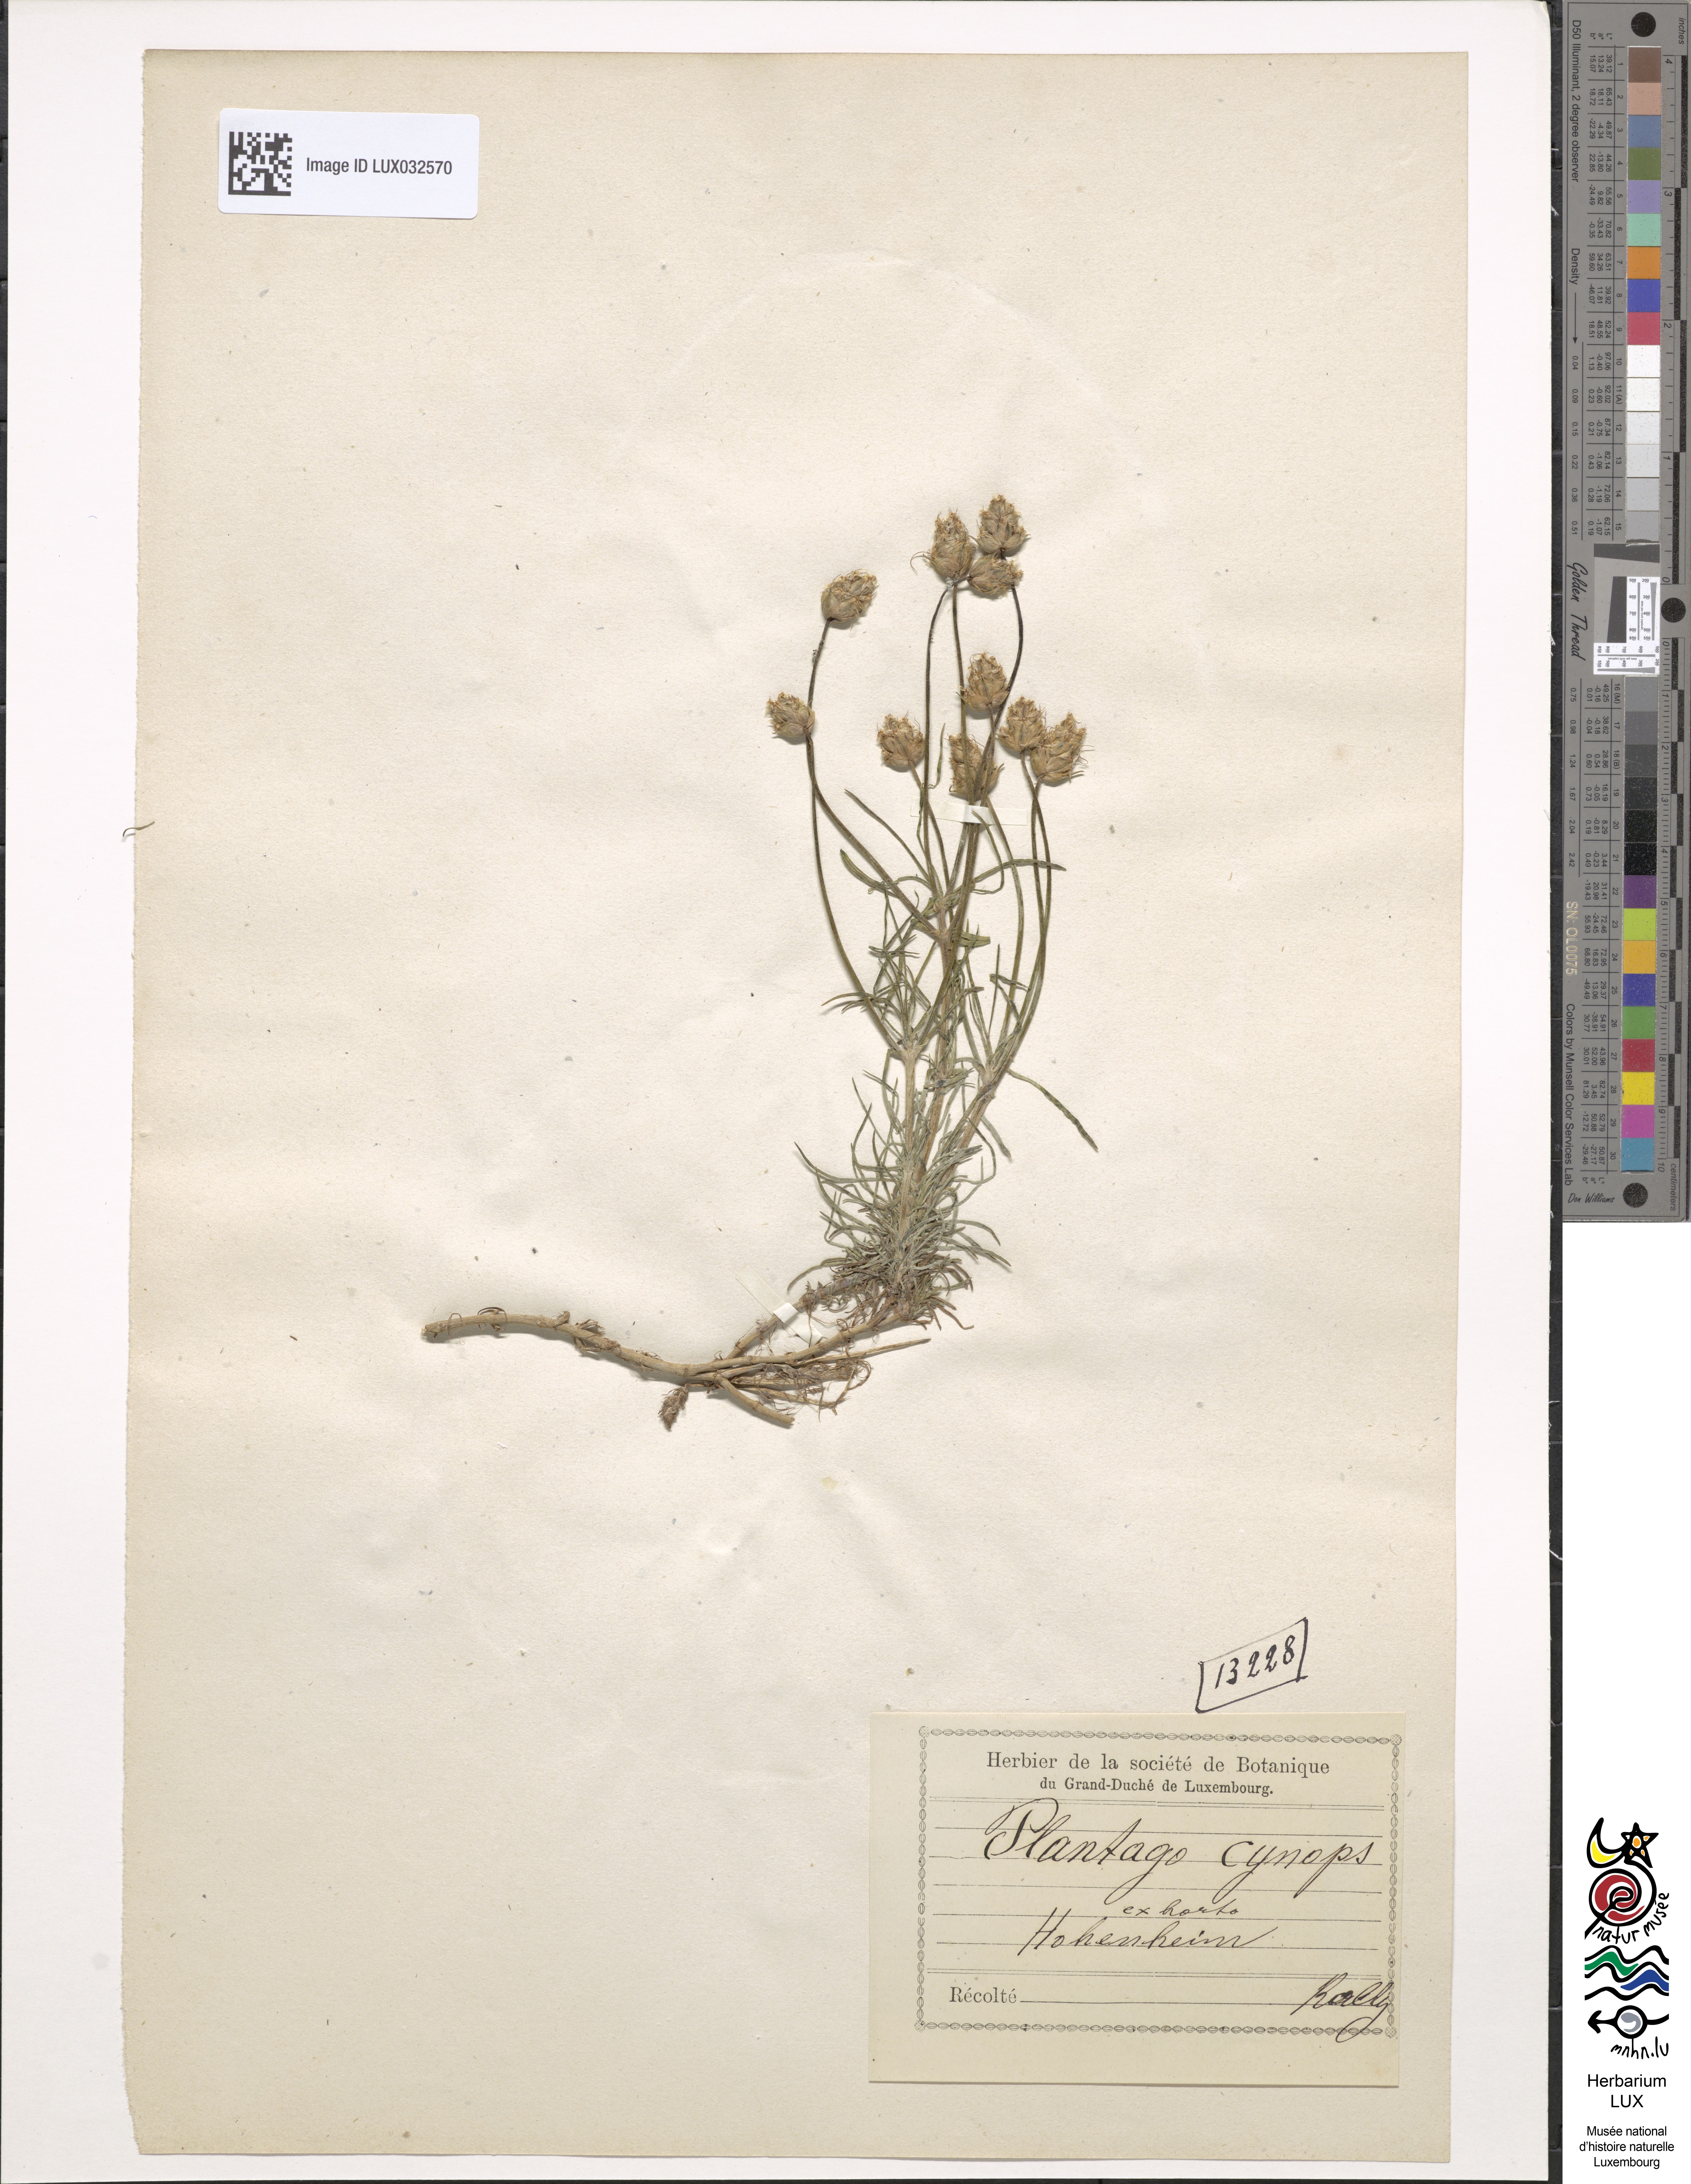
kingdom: Plantae
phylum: Tracheophyta
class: Magnoliopsida
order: Lamiales
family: Plantaginaceae
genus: Plantago
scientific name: Plantago sempervirens
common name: Shrubby plantain
